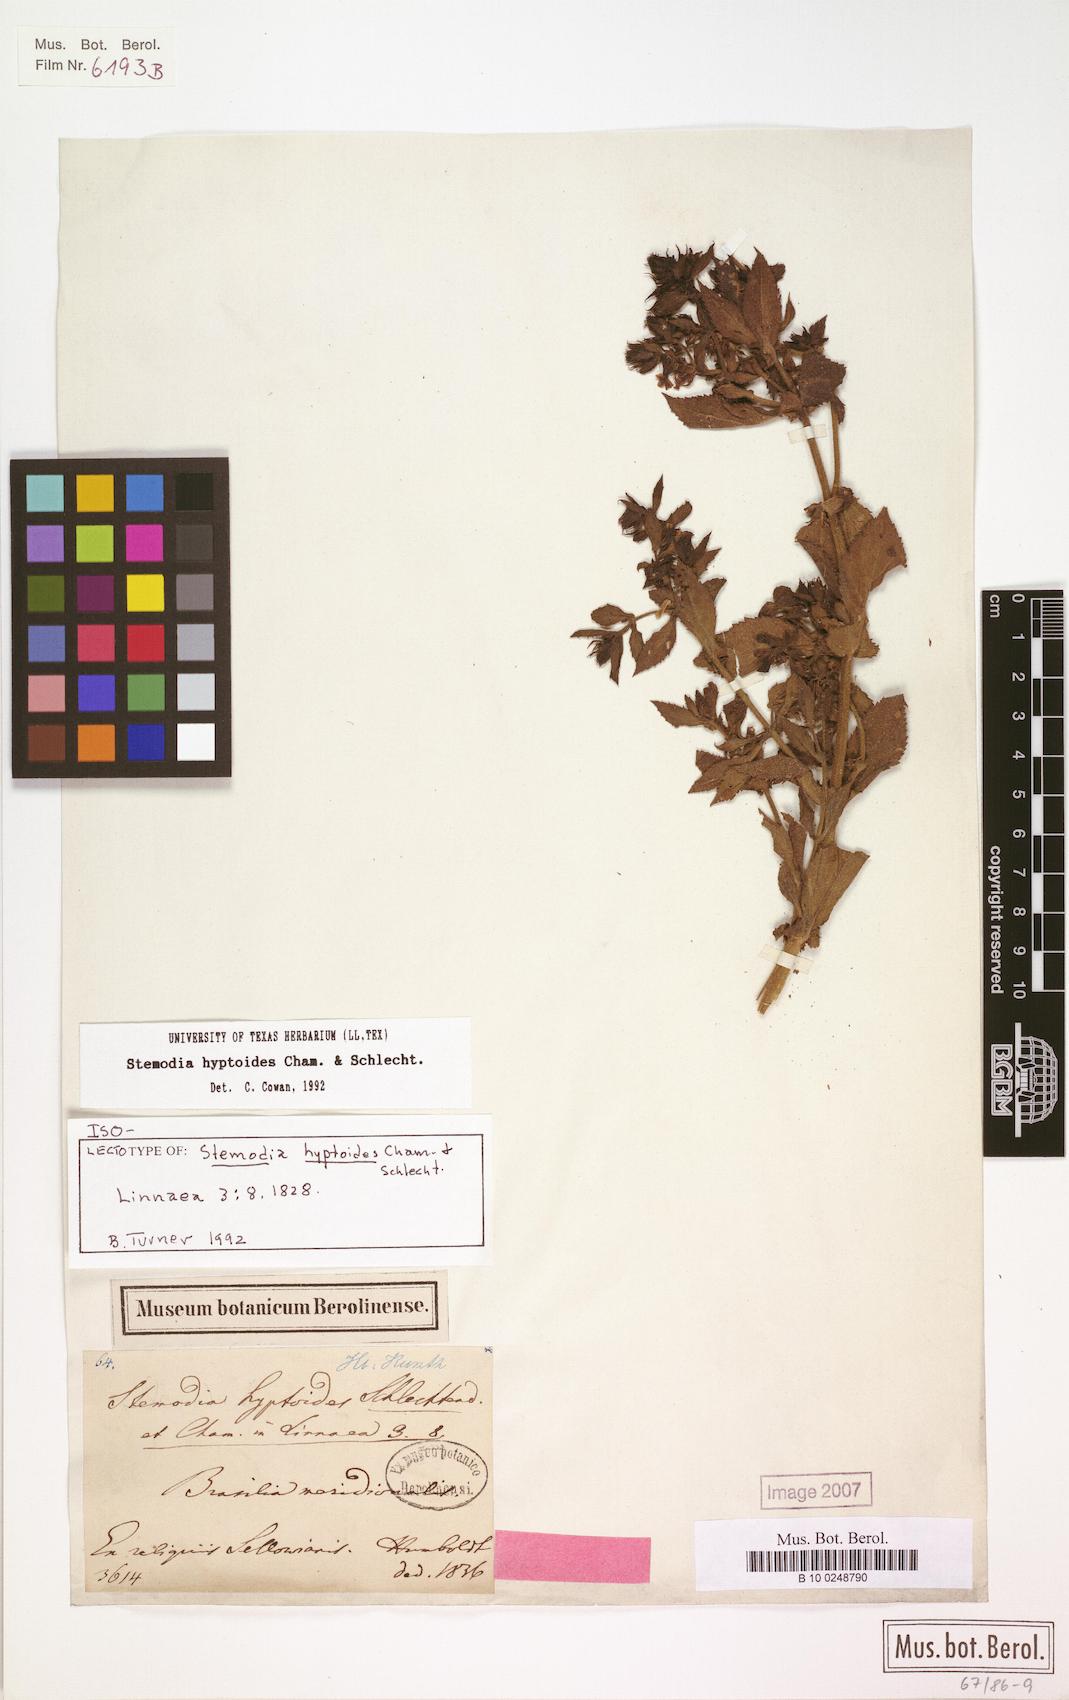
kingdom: Plantae
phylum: Tracheophyta
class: Magnoliopsida
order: Lamiales
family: Plantaginaceae
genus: Stemodia
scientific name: Stemodia hyptoides
